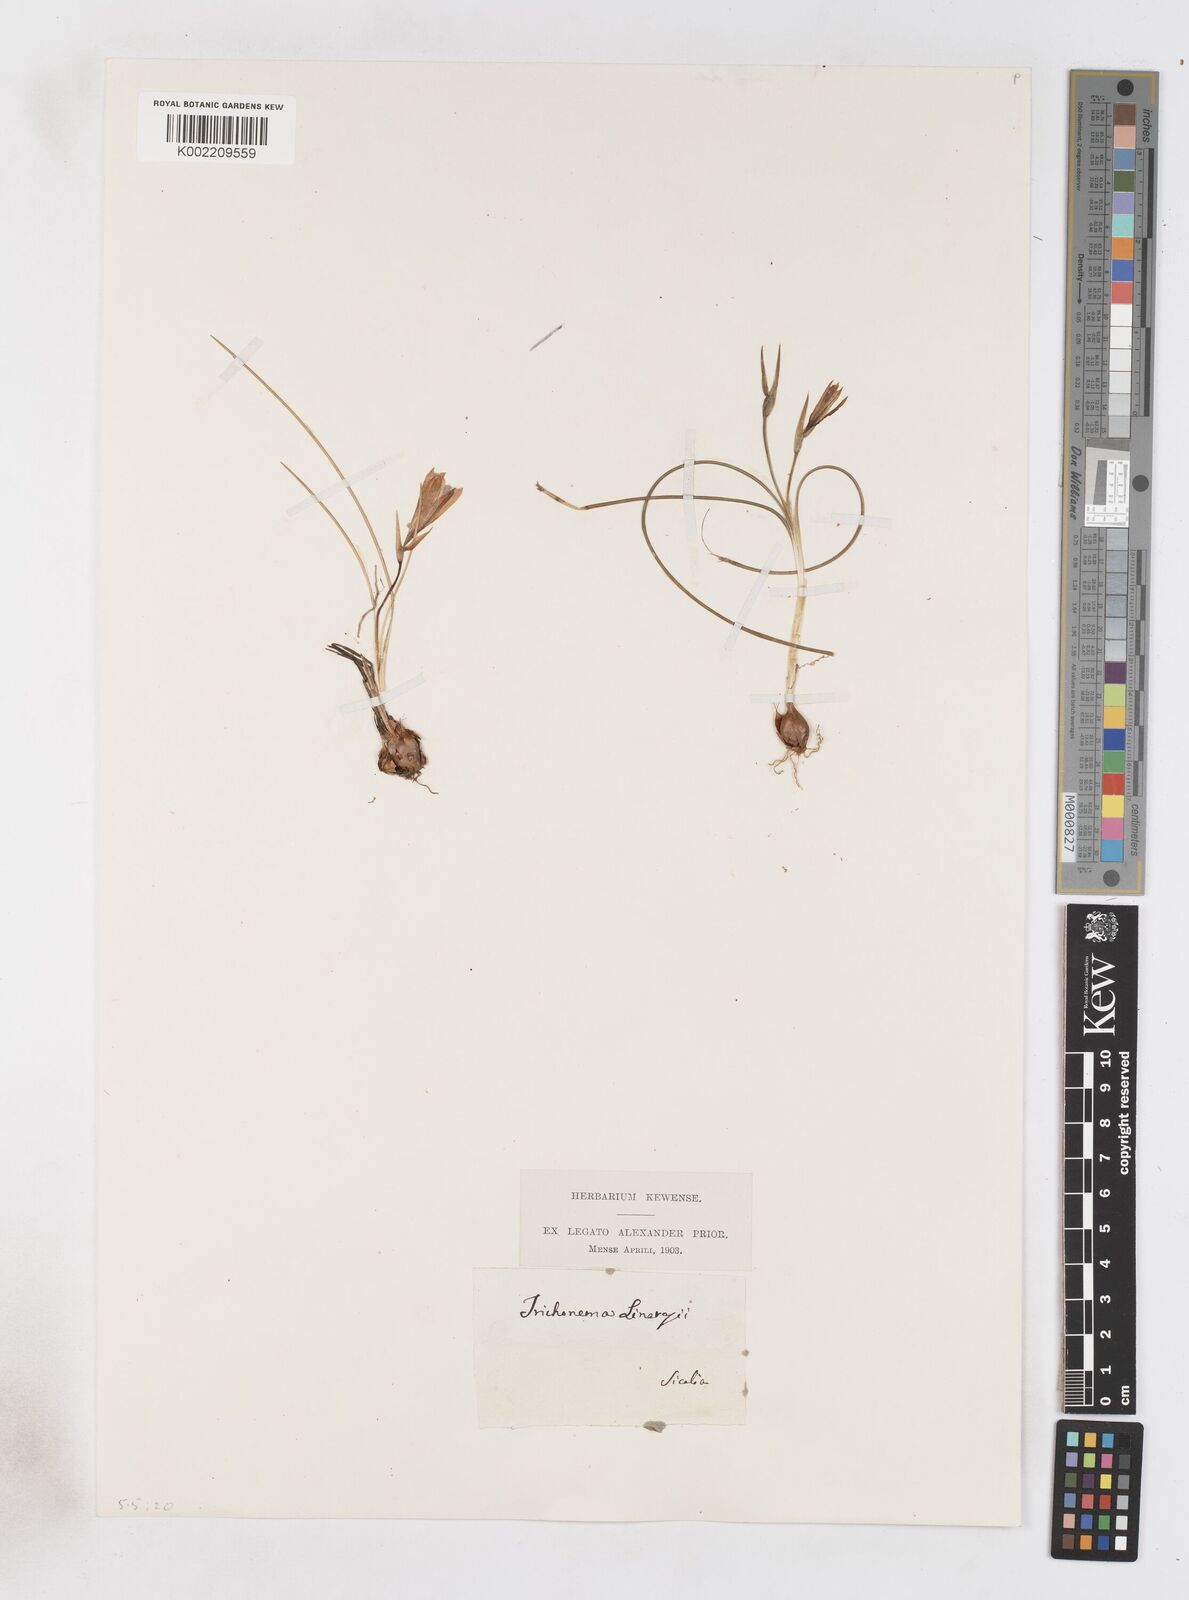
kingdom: Plantae
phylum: Tracheophyta
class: Liliopsida
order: Asparagales
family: Iridaceae
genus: Romulea
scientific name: Romulea linaresii
